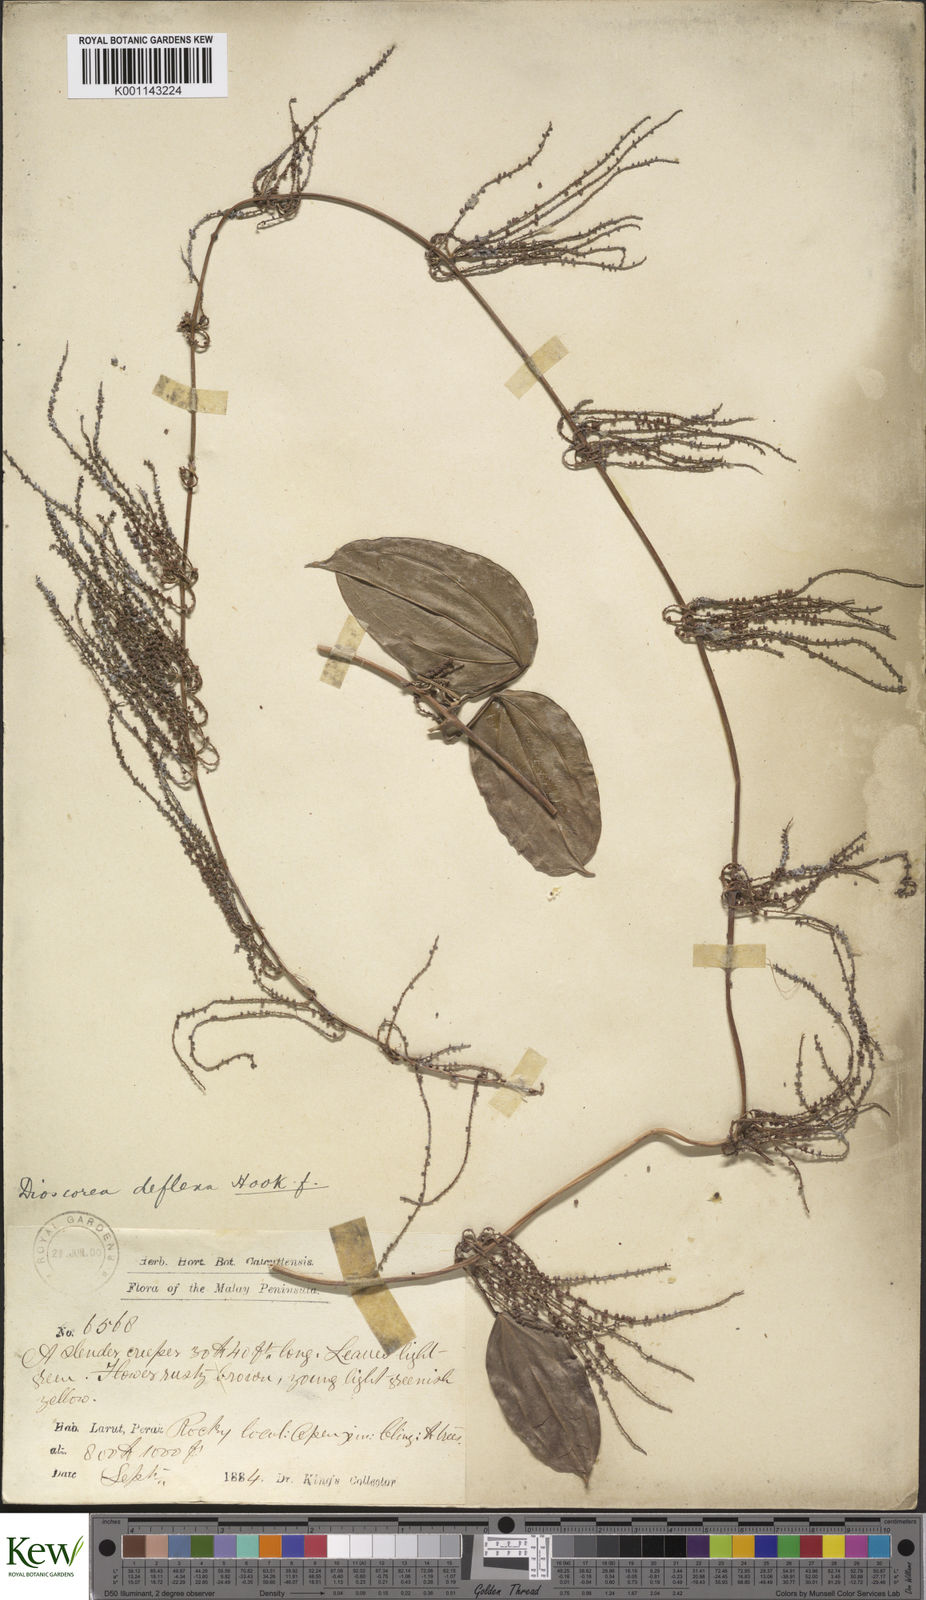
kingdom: Plantae
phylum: Tracheophyta
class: Liliopsida
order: Dioscoreales
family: Dioscoreaceae
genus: Dioscorea
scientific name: Dioscorea prainiana
